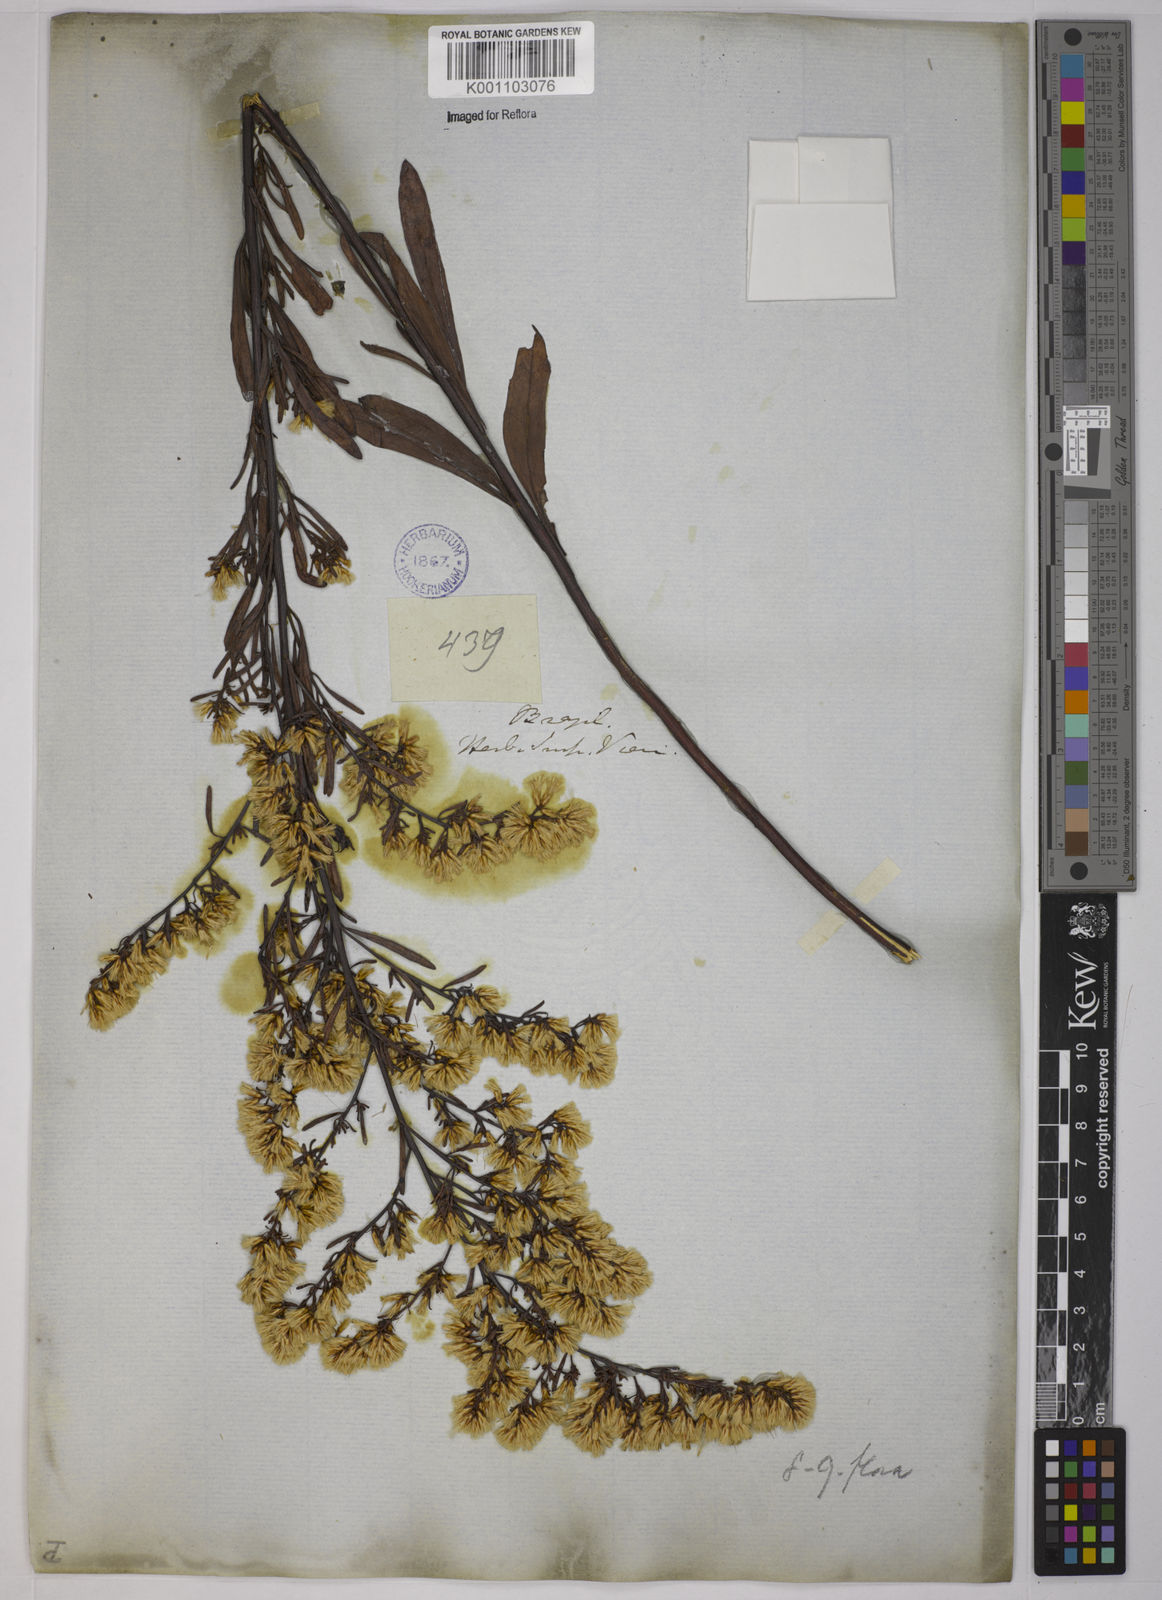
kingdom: Plantae
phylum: Tracheophyta
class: Magnoliopsida
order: Asterales
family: Asteraceae
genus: Baccharis
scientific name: Baccharis leptocephala
